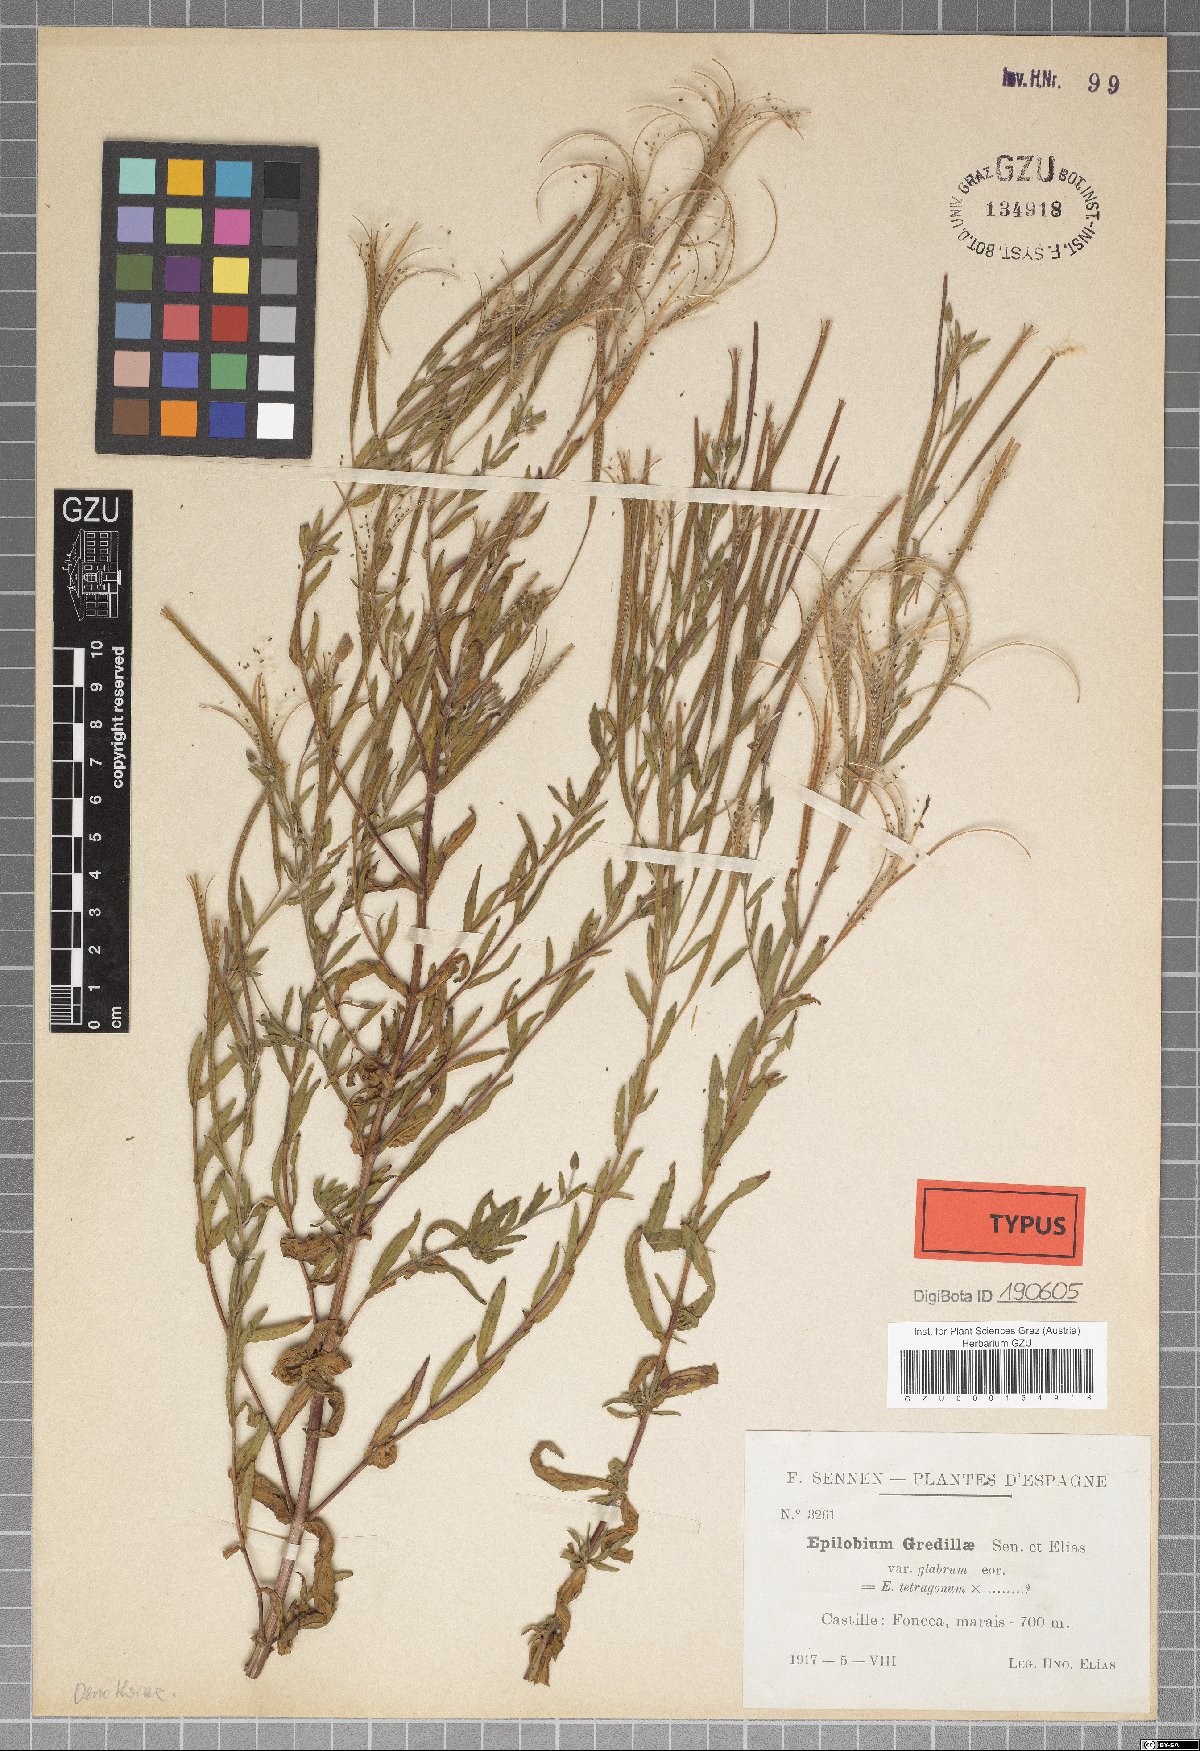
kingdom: Plantae
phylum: Tracheophyta
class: Magnoliopsida
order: Myrtales
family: Onagraceae
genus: Epilobium
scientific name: Epilobium tournefortii
